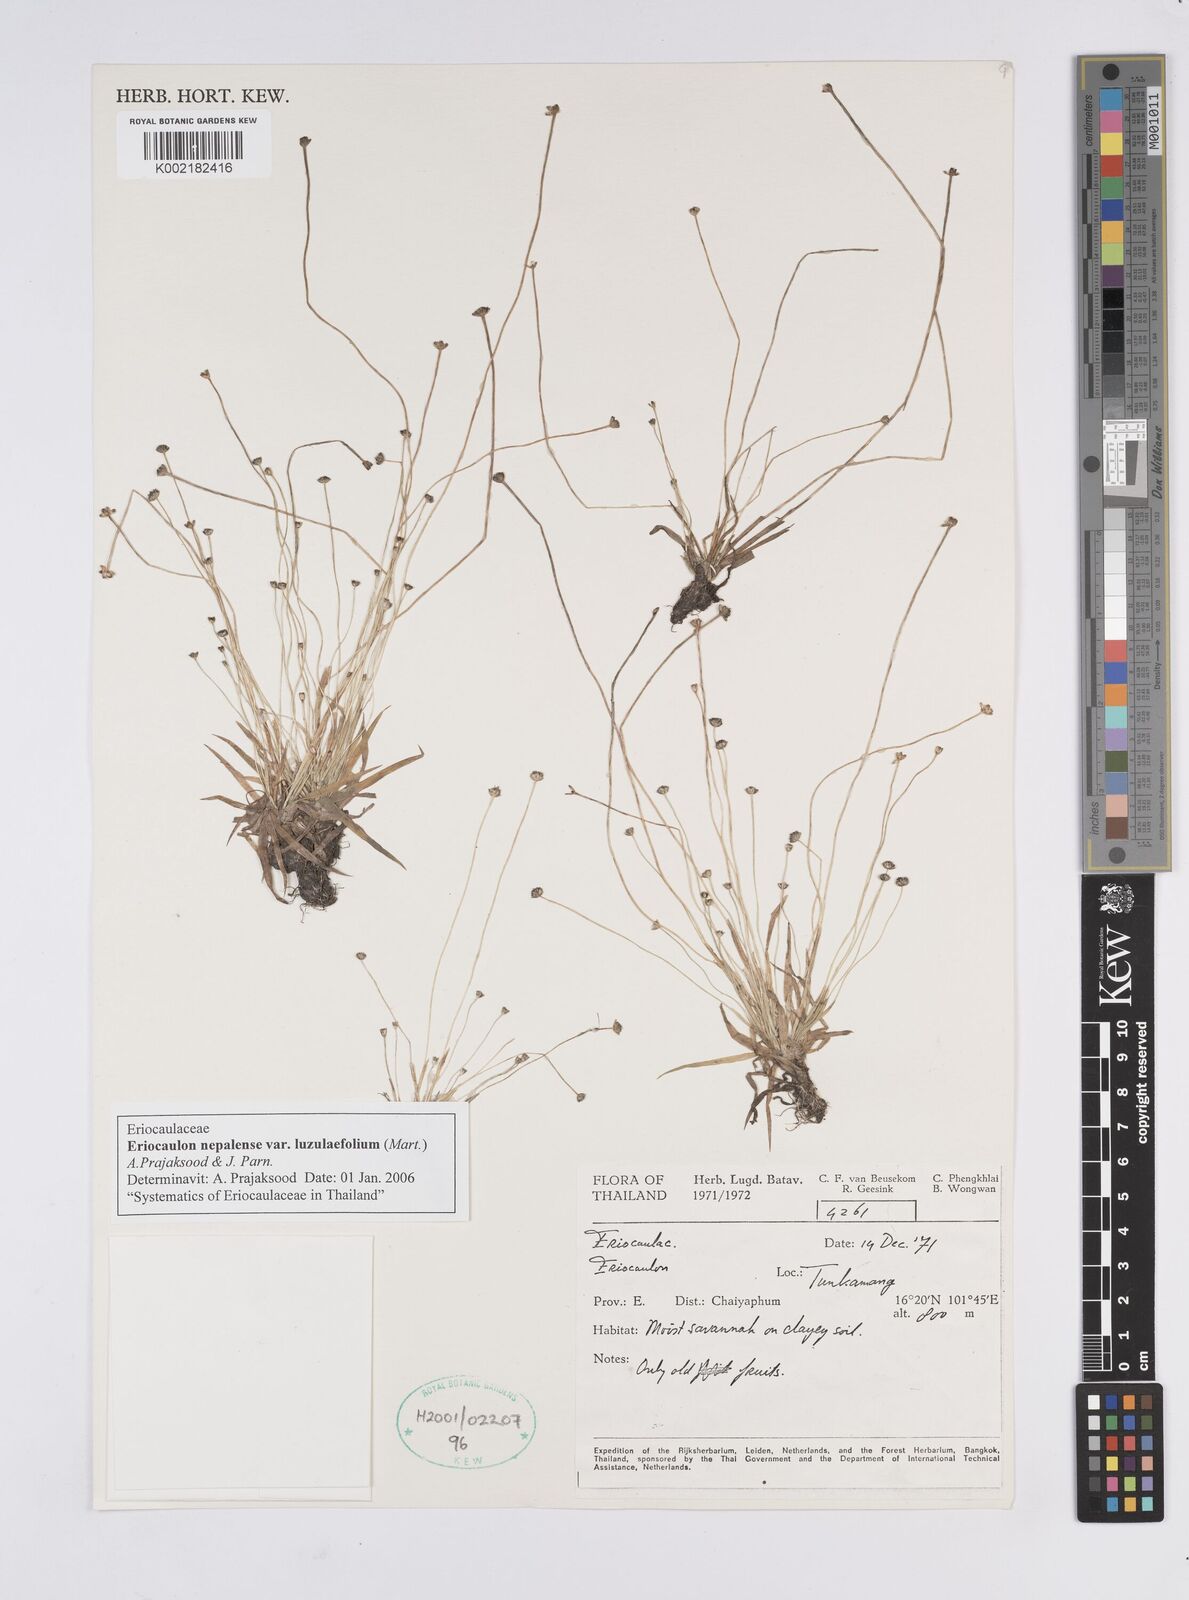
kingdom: Plantae
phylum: Tracheophyta
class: Liliopsida
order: Poales
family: Eriocaulaceae
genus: Eriocaulon
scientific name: Eriocaulon nepalense
